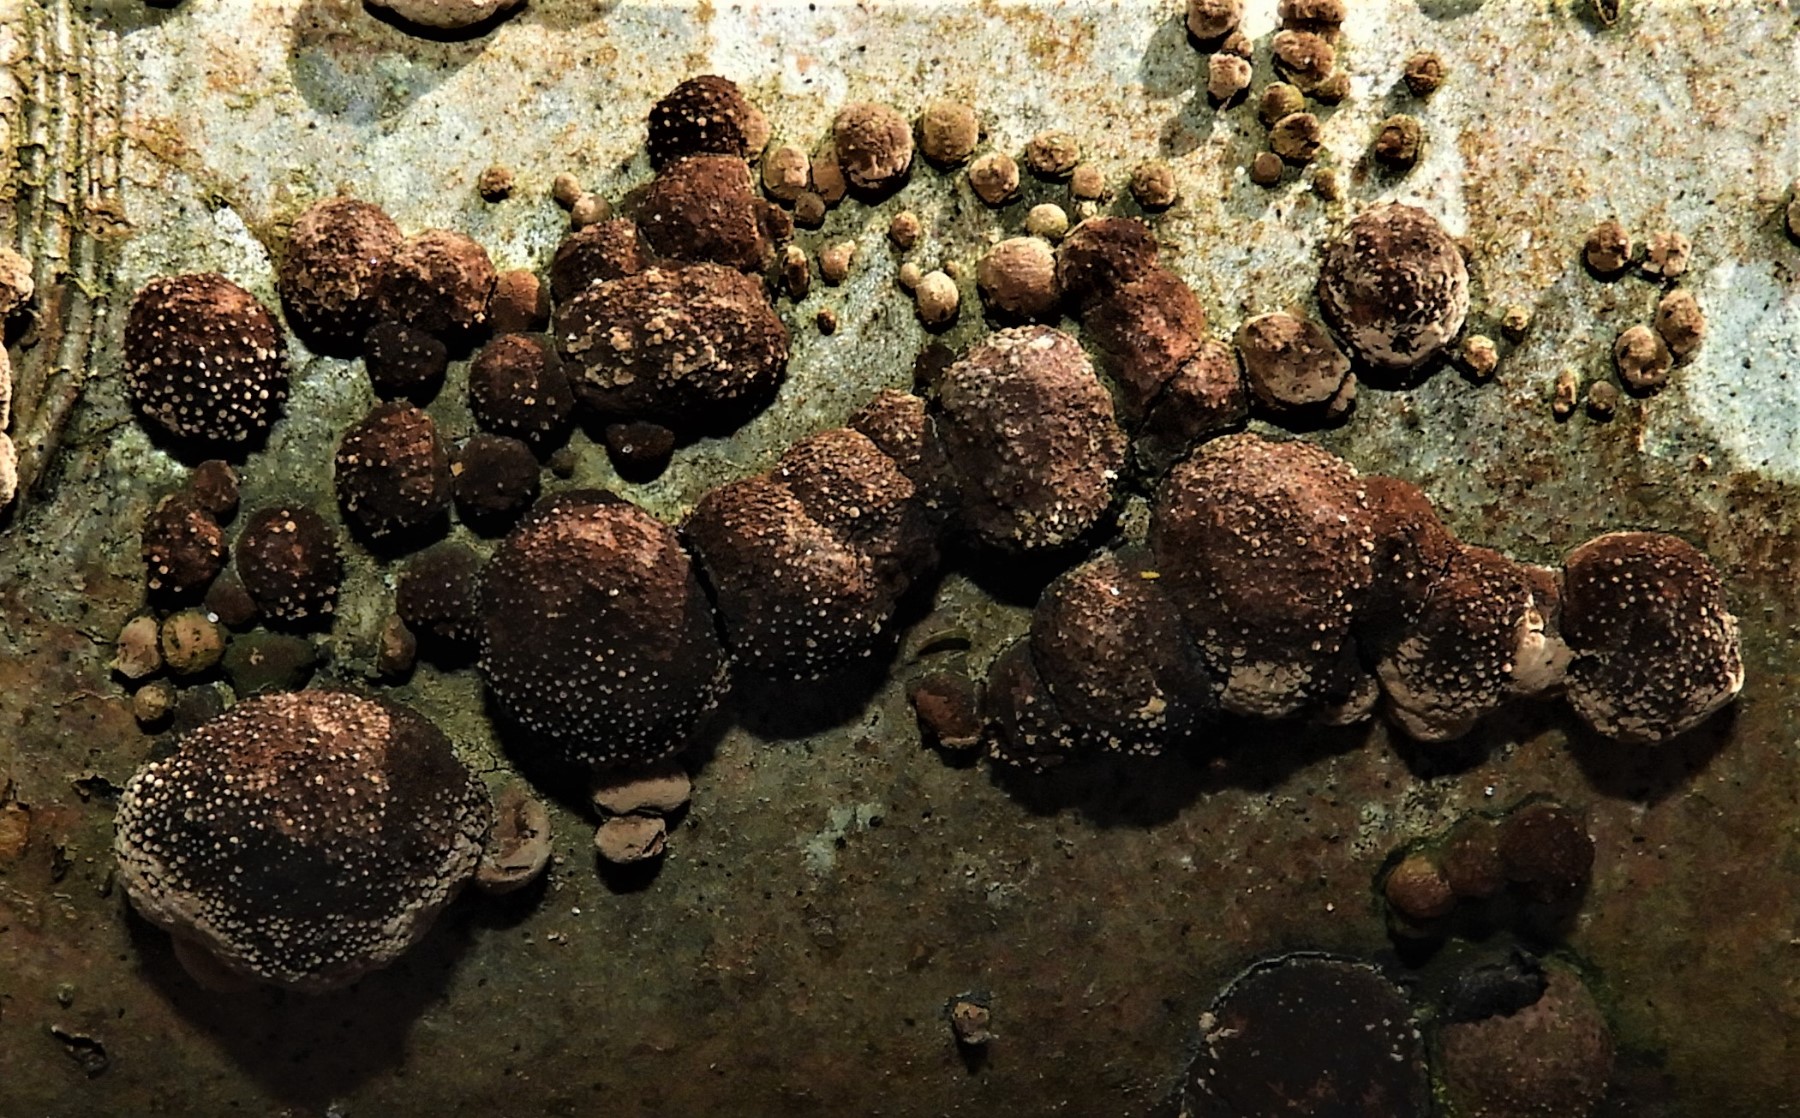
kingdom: Fungi
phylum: Ascomycota
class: Sordariomycetes
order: Xylariales
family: Hypoxylaceae
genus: Hypoxylon
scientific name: Hypoxylon fragiforme
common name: kuljordbær
